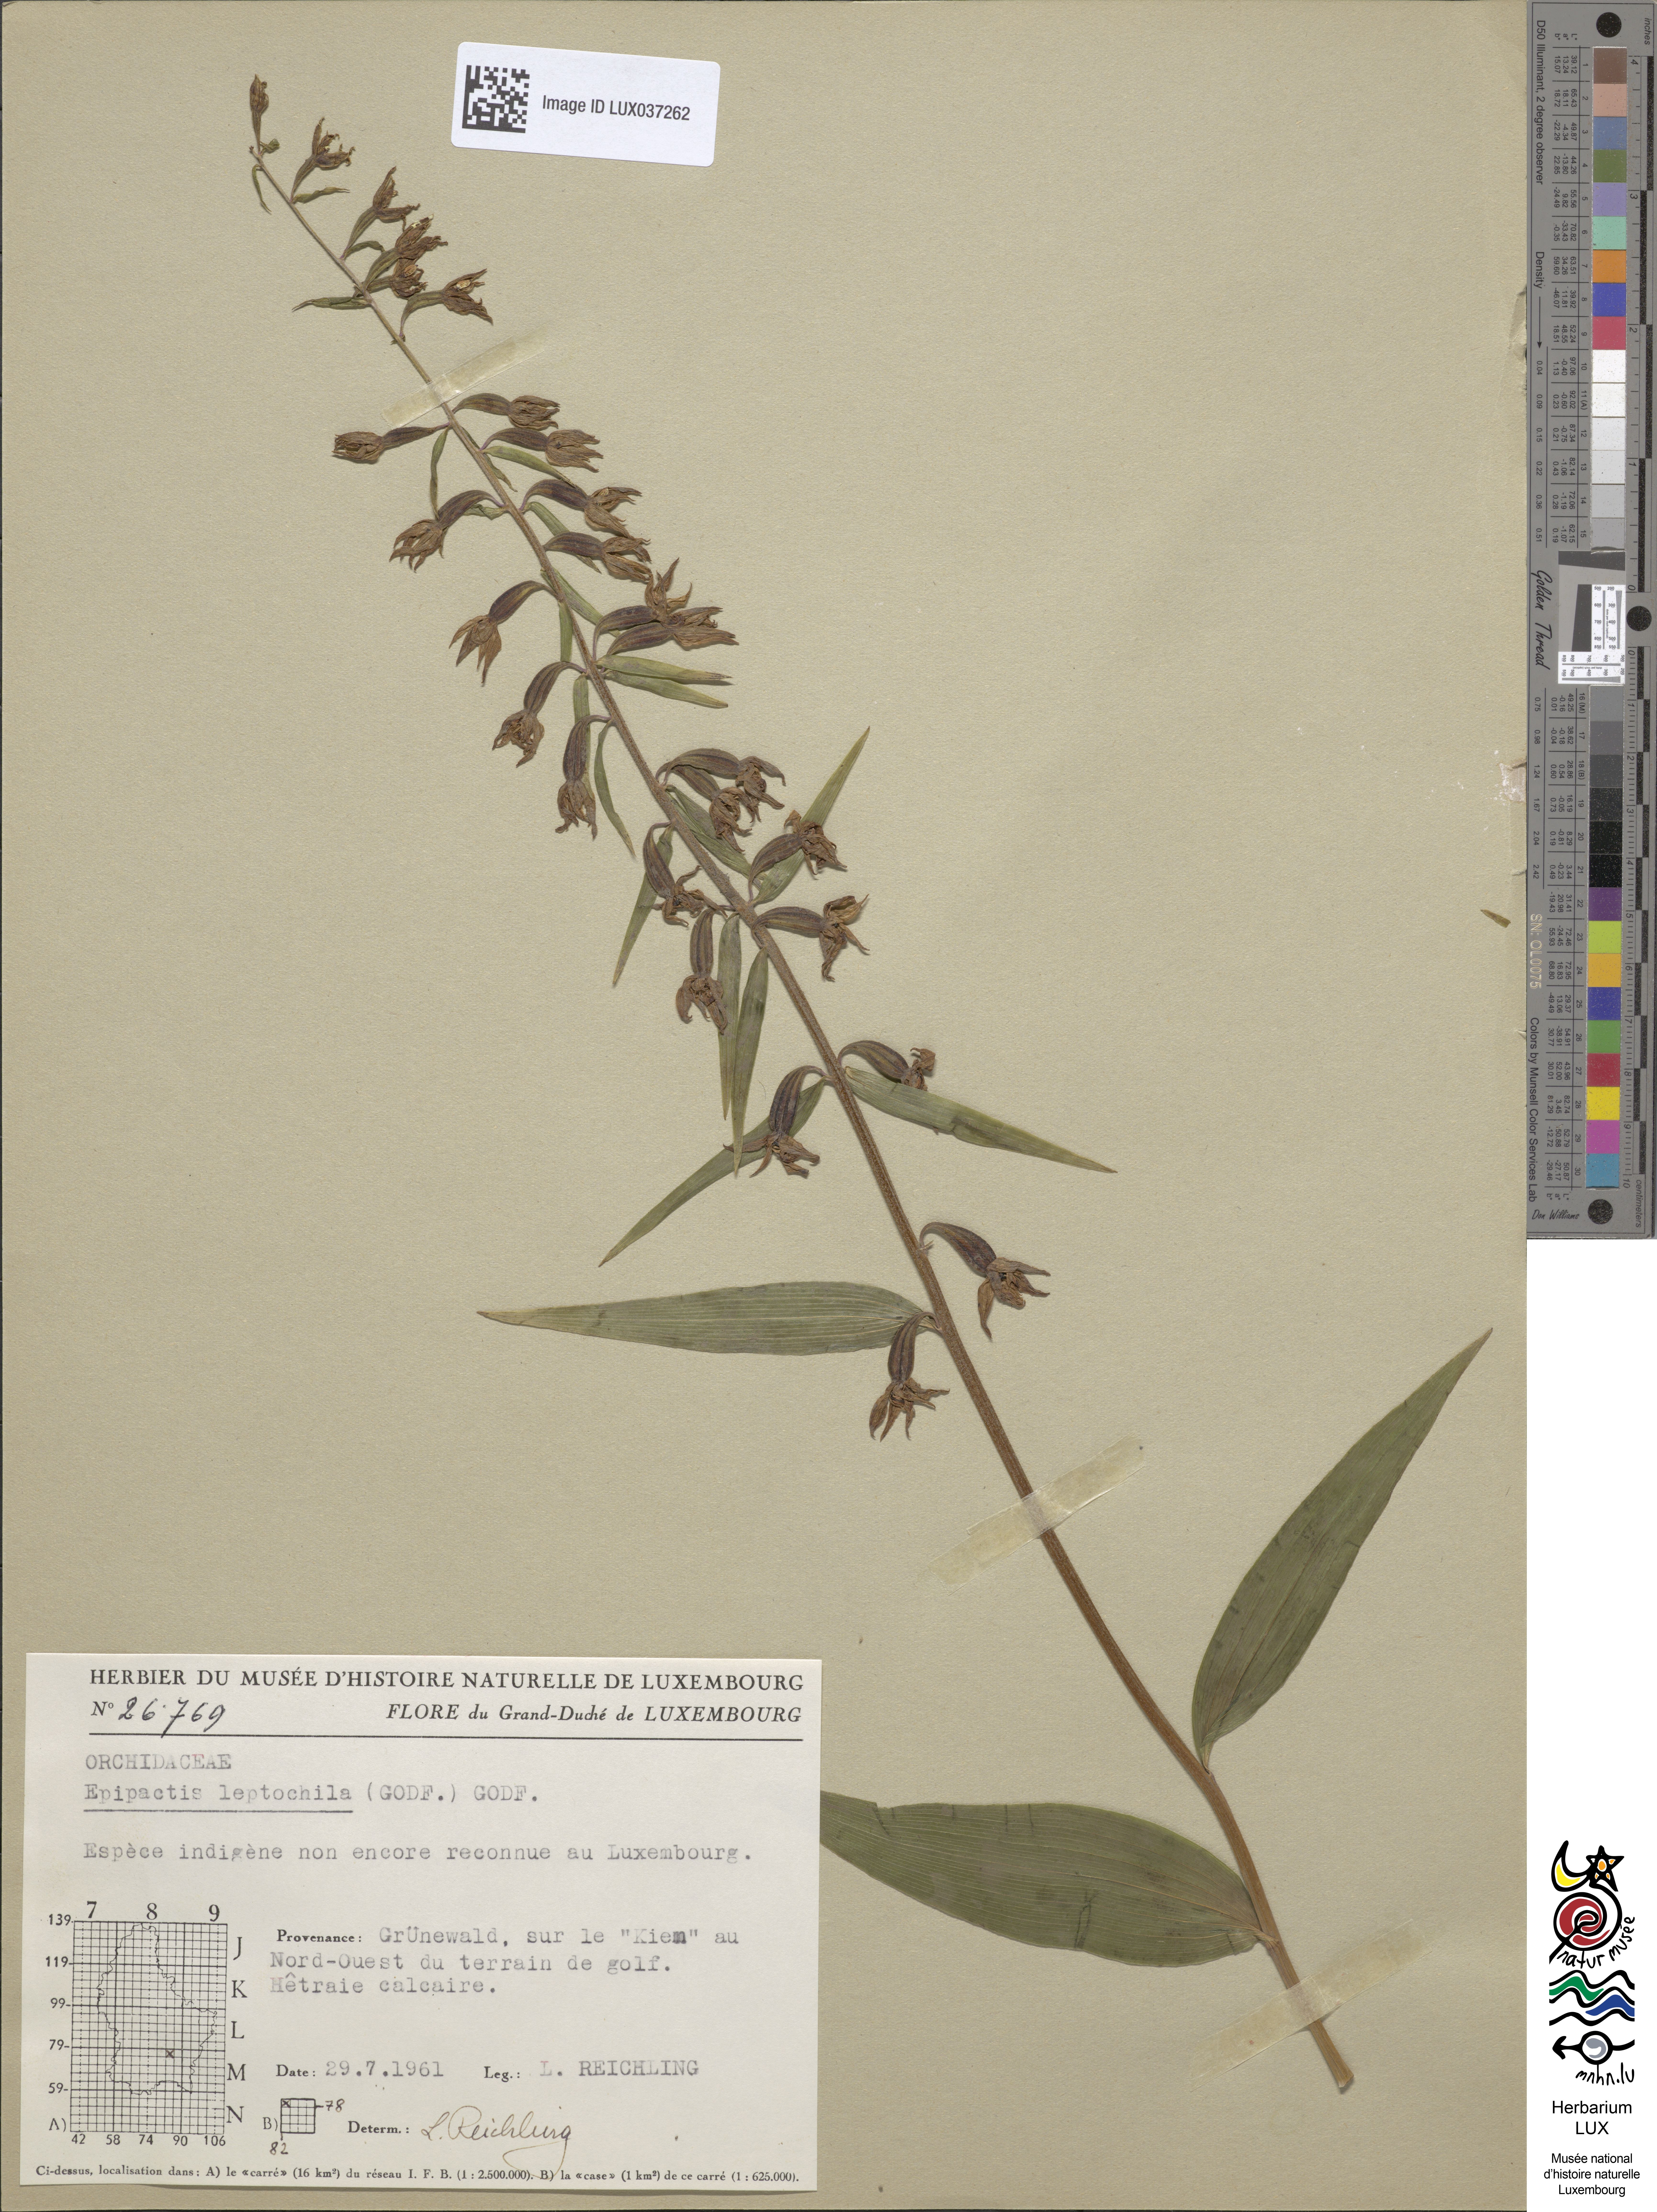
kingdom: Plantae
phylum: Tracheophyta
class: Liliopsida
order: Asparagales
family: Orchidaceae
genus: Epipactis
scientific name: Epipactis leptochila
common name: Narrow-lipped helleborine
